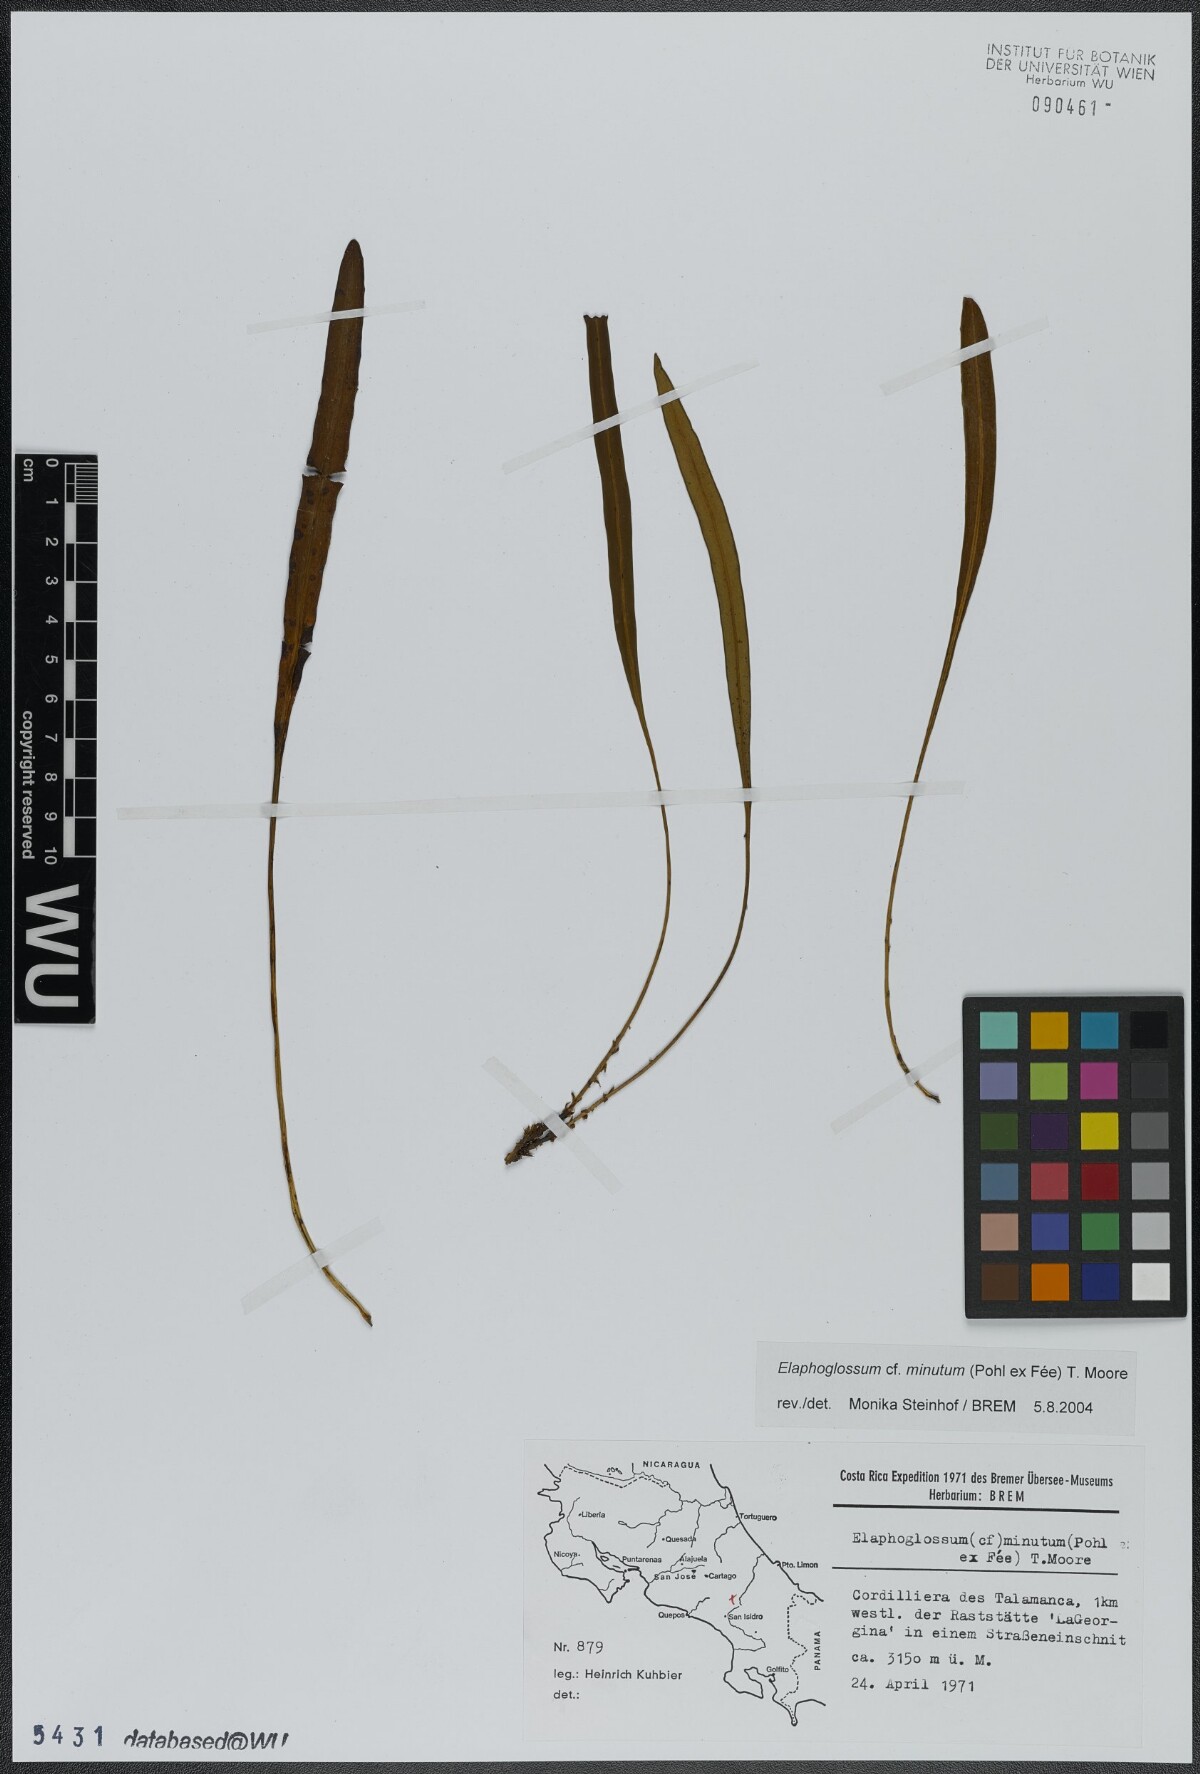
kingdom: Plantae
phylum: Tracheophyta
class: Polypodiopsida
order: Polypodiales
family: Dryopteridaceae
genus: Elaphoglossum
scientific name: Elaphoglossum minutum
